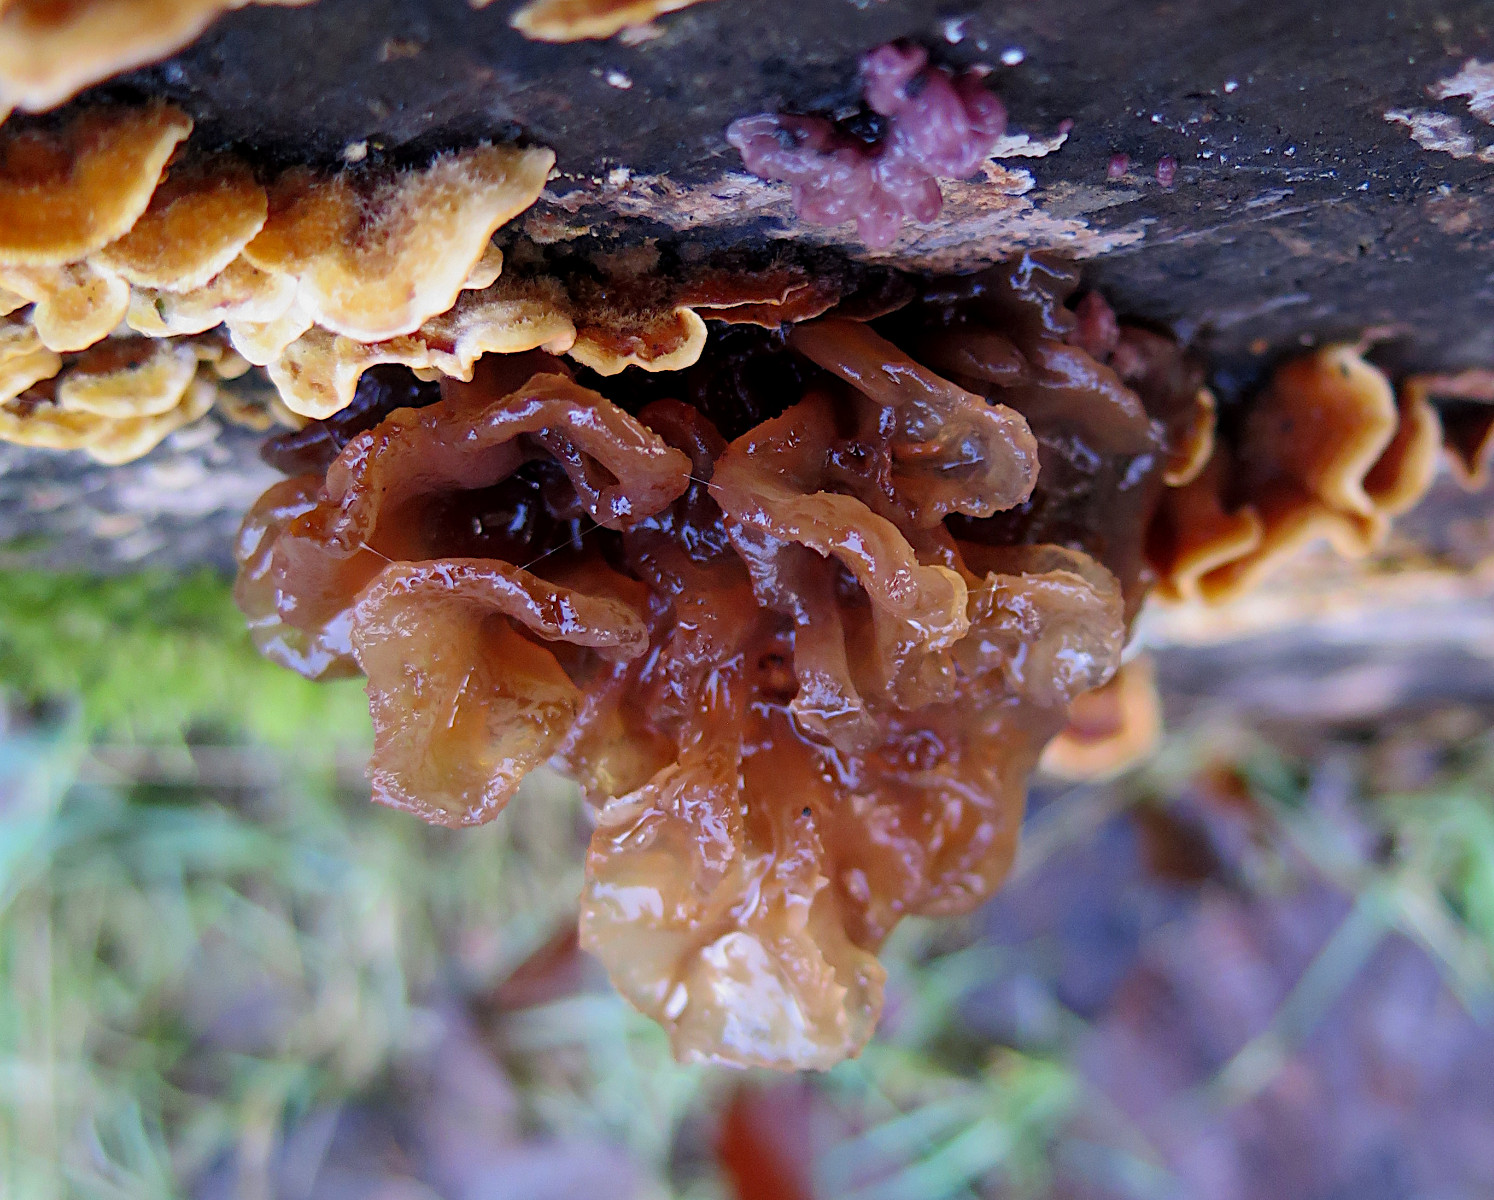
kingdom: Fungi
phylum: Basidiomycota
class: Tremellomycetes
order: Tremellales
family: Tremellaceae
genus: Phaeotremella
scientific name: Phaeotremella frondosa
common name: kæmpe-bævresvamp
